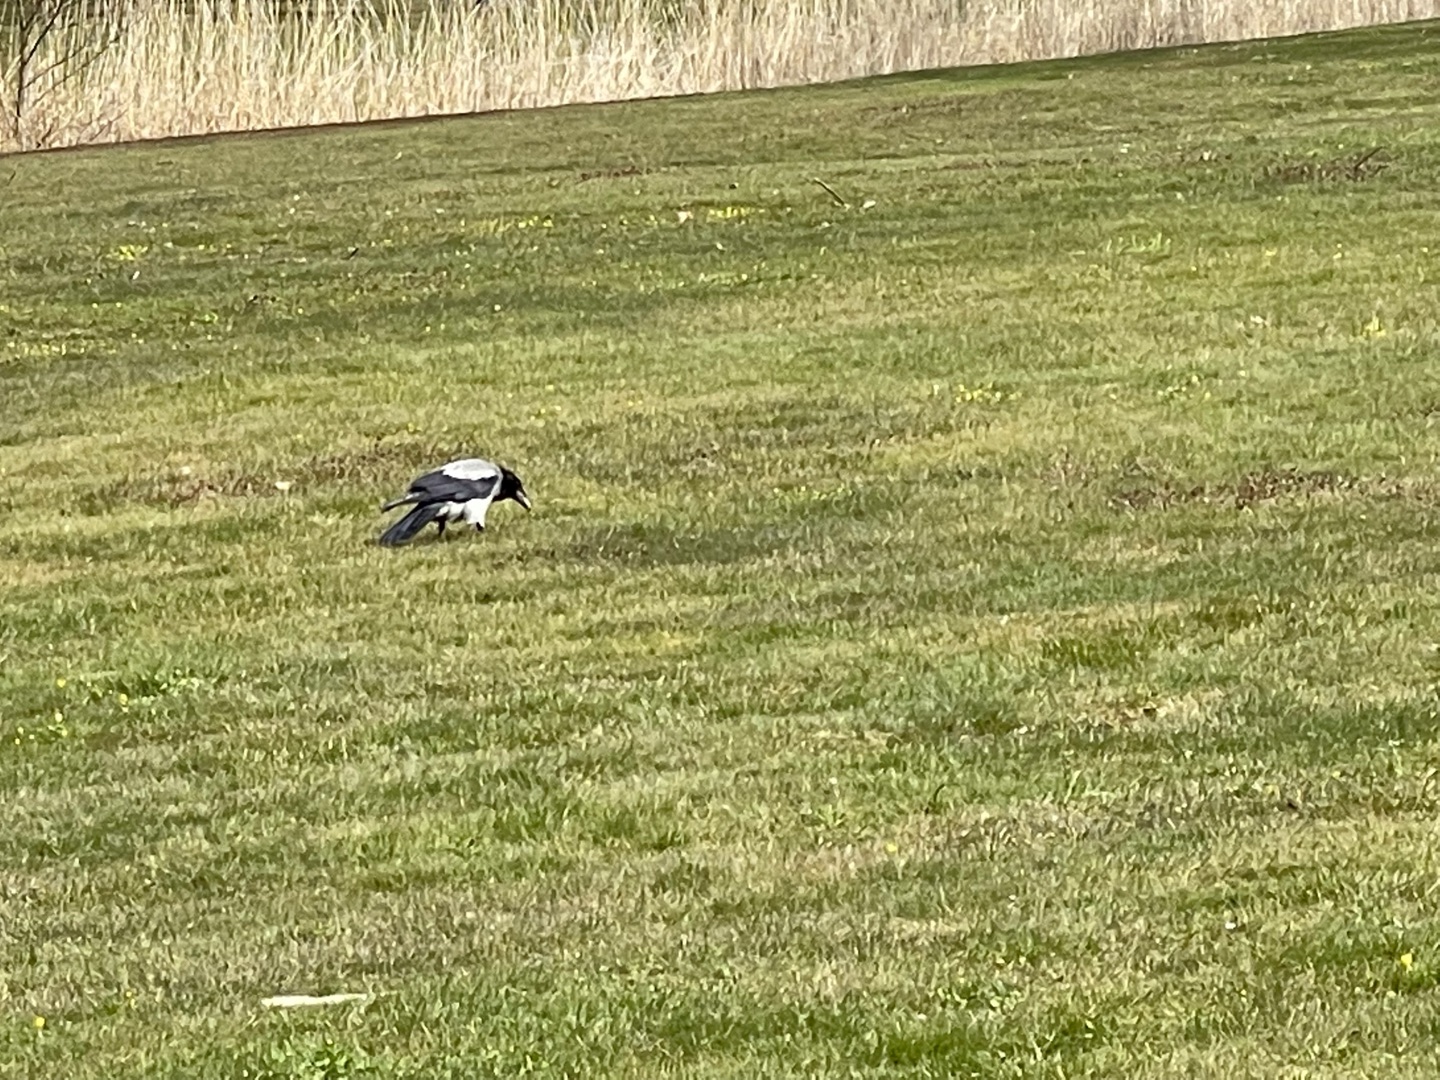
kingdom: Animalia
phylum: Chordata
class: Aves
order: Passeriformes
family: Corvidae
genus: Corvus
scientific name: Corvus cornix
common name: Gråkrage
